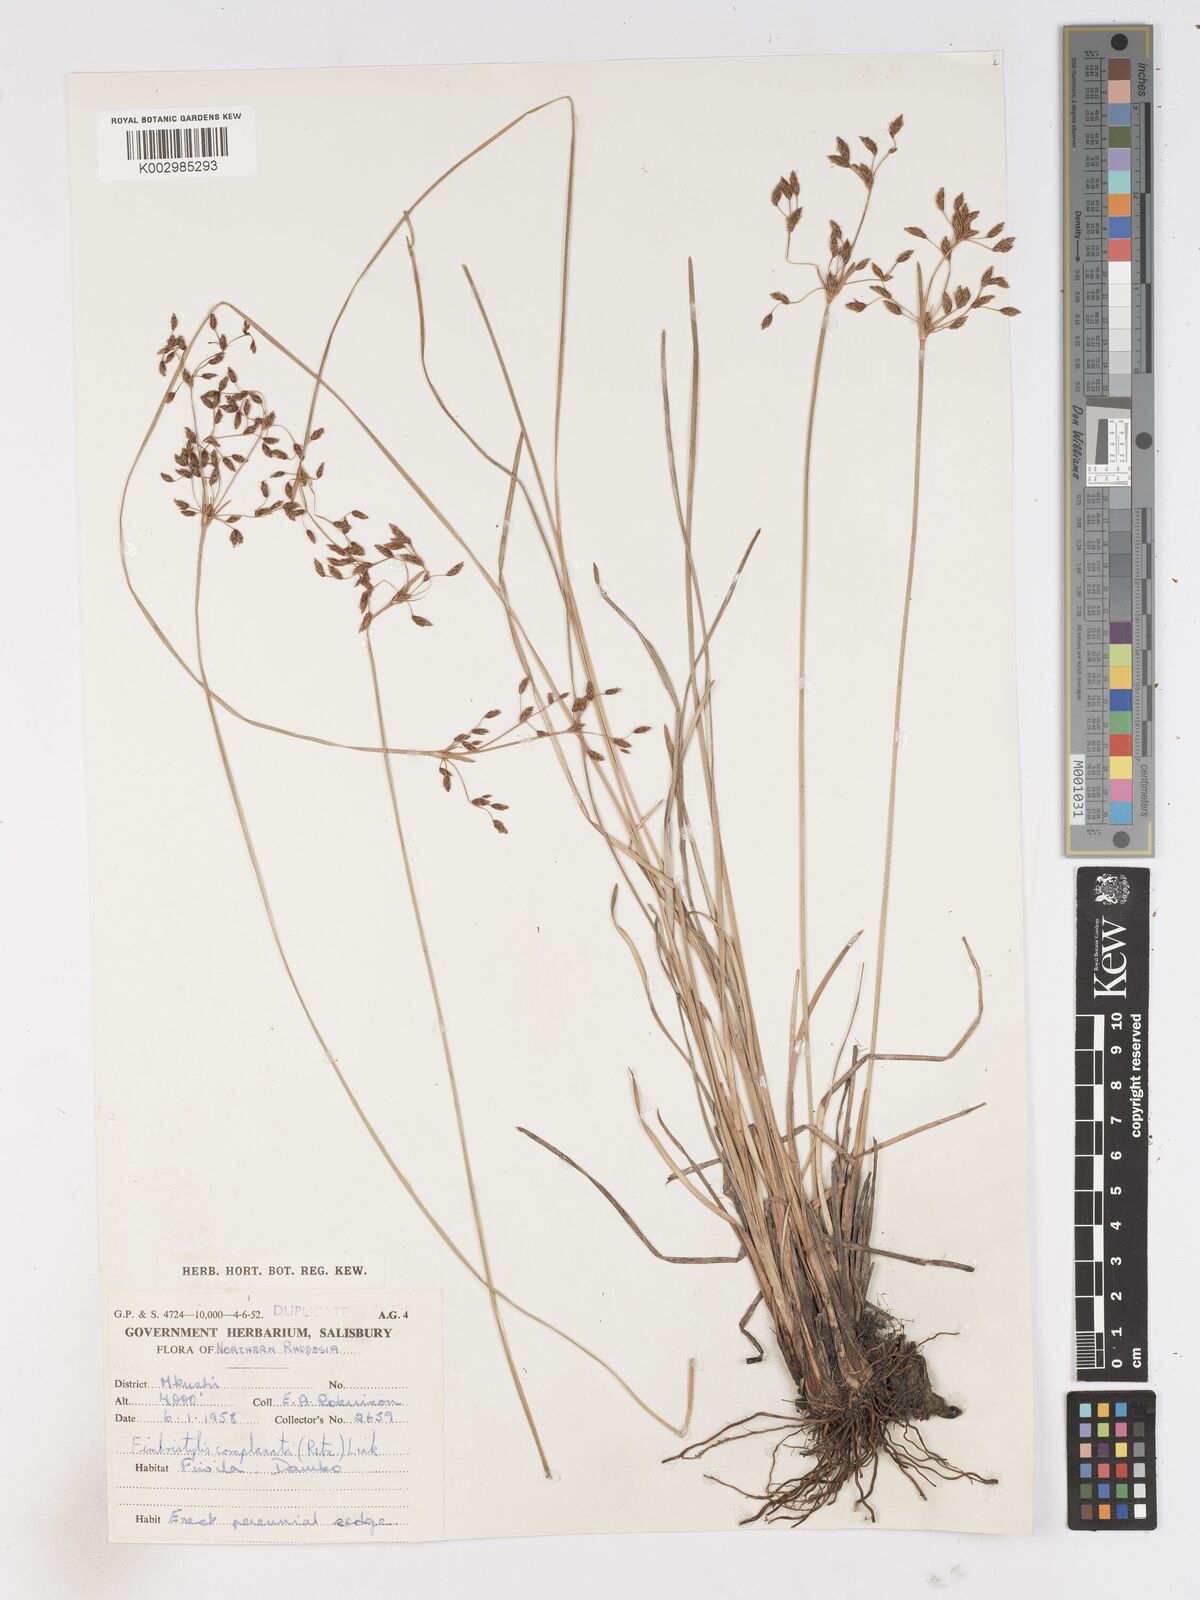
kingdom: Plantae
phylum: Tracheophyta
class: Liliopsida
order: Poales
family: Cyperaceae
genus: Fimbristylis
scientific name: Fimbristylis complanata
